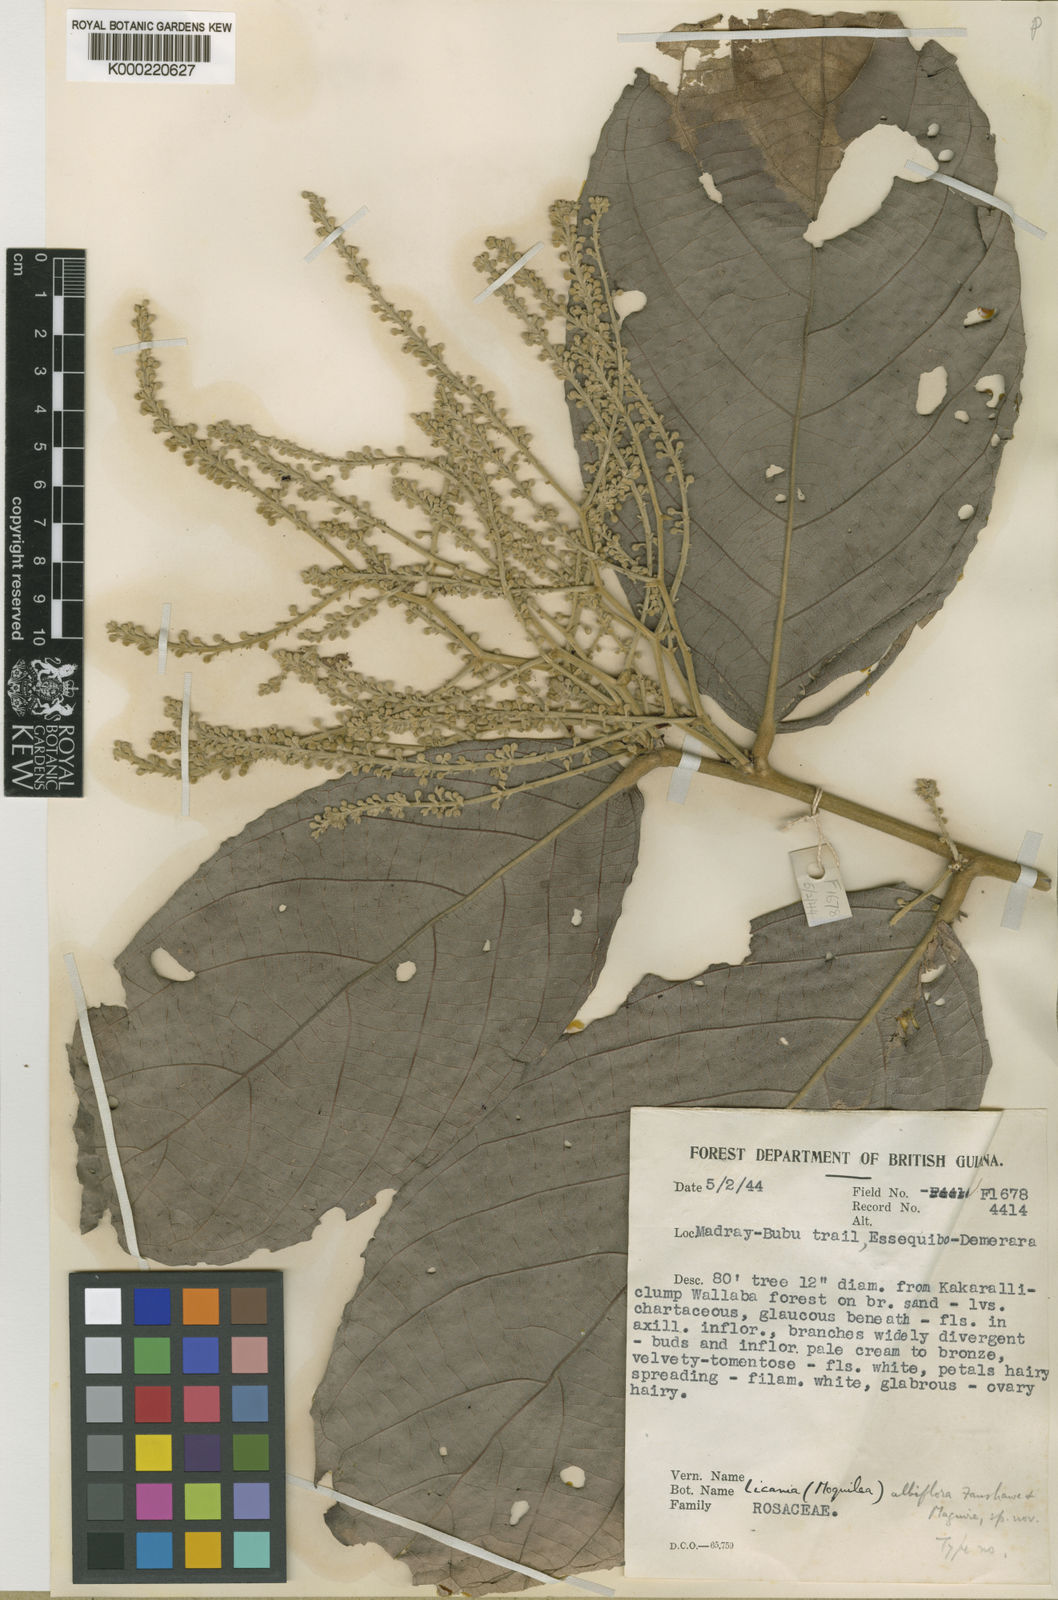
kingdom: Plantae
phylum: Tracheophyta
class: Magnoliopsida
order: Malpighiales
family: Chrysobalanaceae
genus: Leptobalanus
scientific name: Leptobalanus albiflorus
